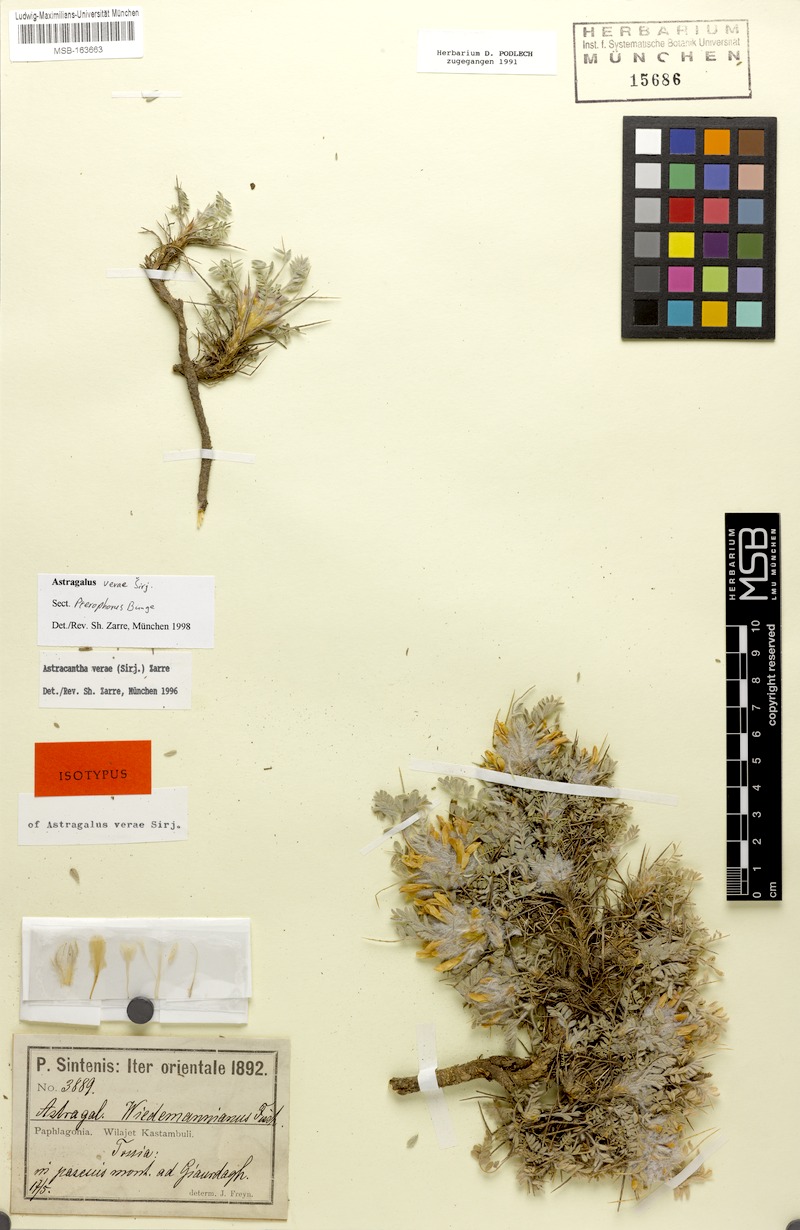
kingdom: Plantae
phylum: Tracheophyta
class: Magnoliopsida
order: Fabales
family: Fabaceae
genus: Astragalus
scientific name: Astragalus verae
